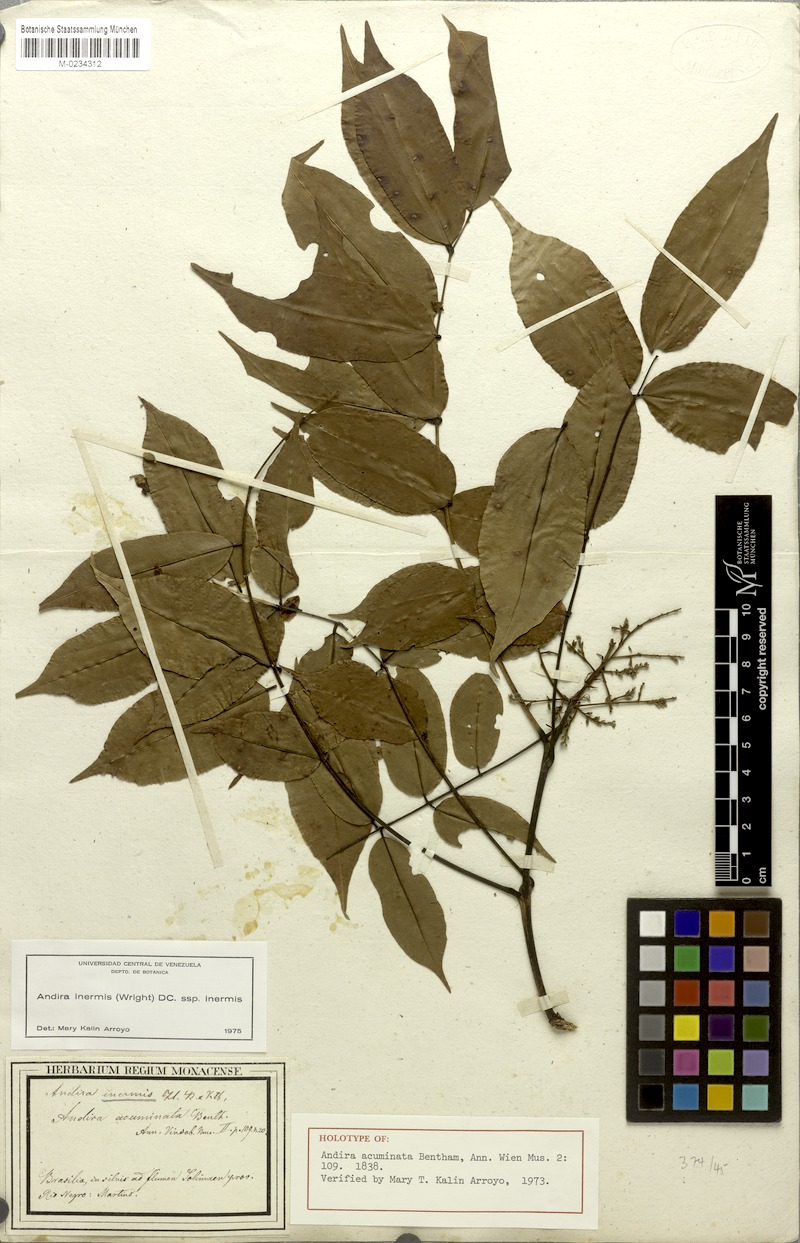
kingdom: Plantae
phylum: Tracheophyta
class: Magnoliopsida
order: Fabales
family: Fabaceae
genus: Andira
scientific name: Andira inermis
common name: Angelin
